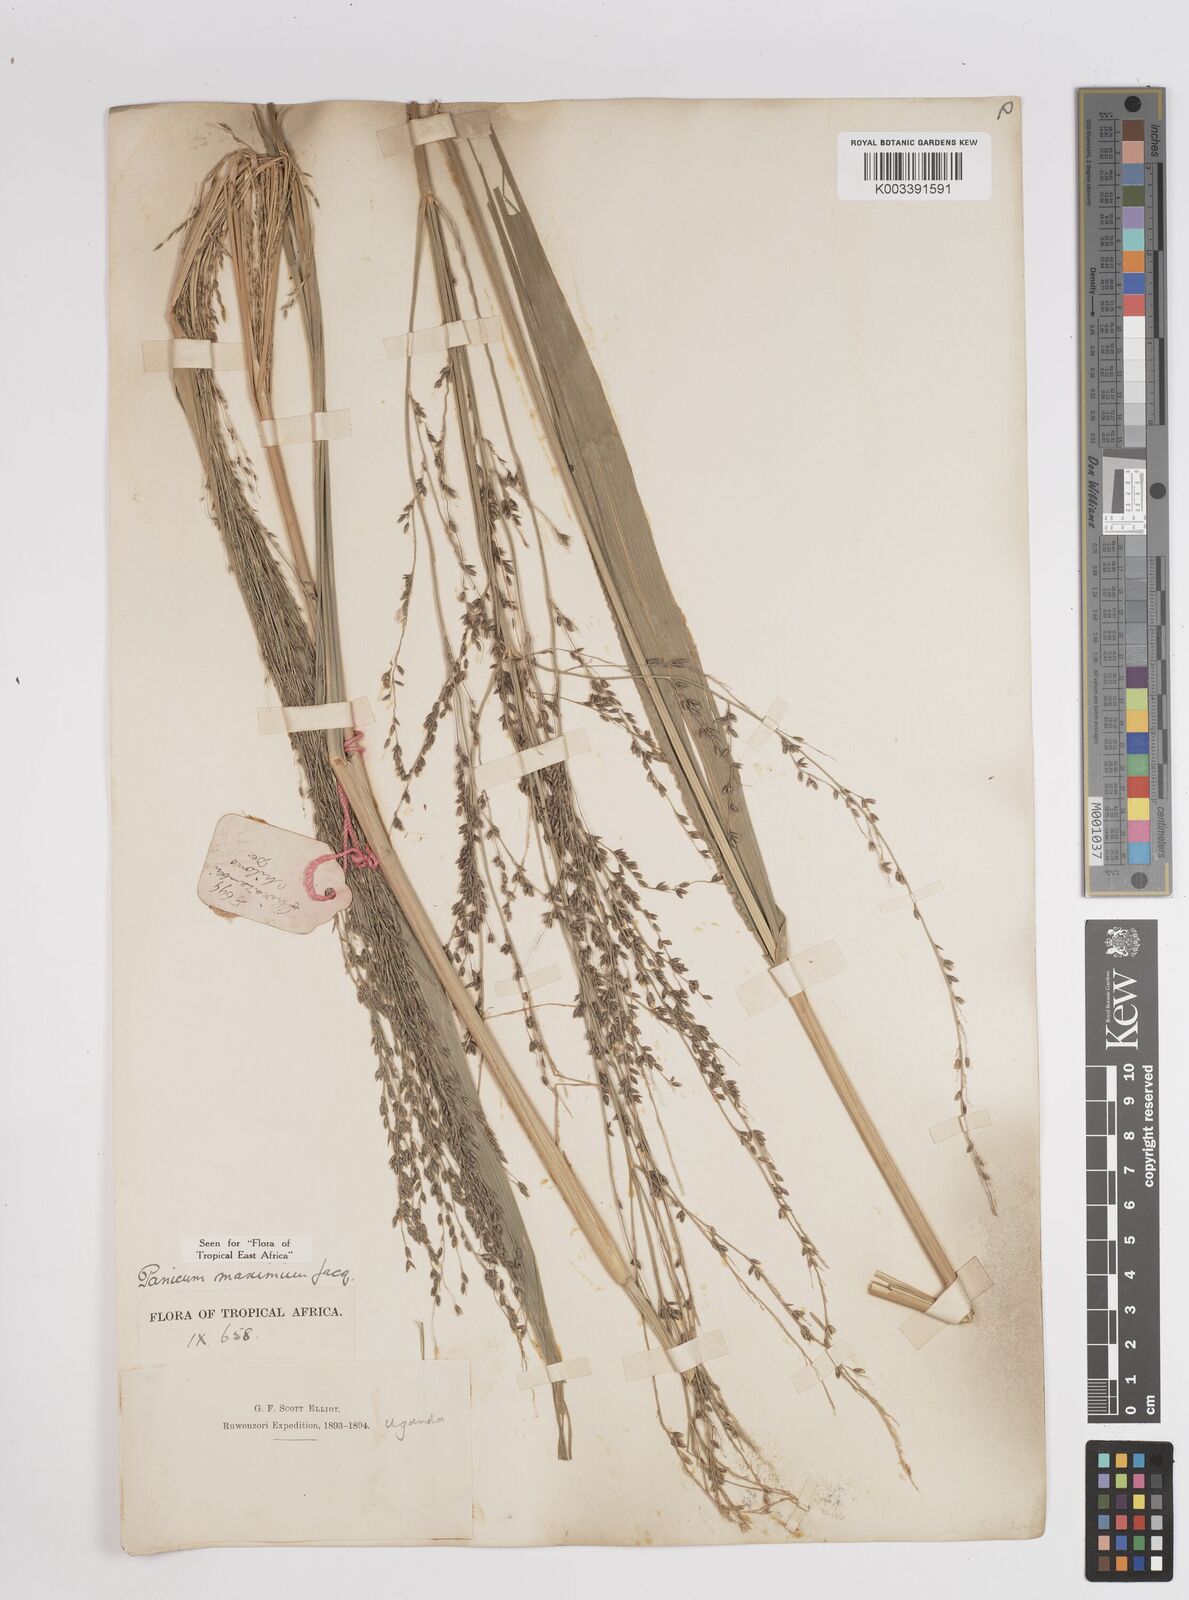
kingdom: Plantae
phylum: Tracheophyta
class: Liliopsida
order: Poales
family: Poaceae
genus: Megathyrsus
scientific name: Megathyrsus maximus
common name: Guineagrass
